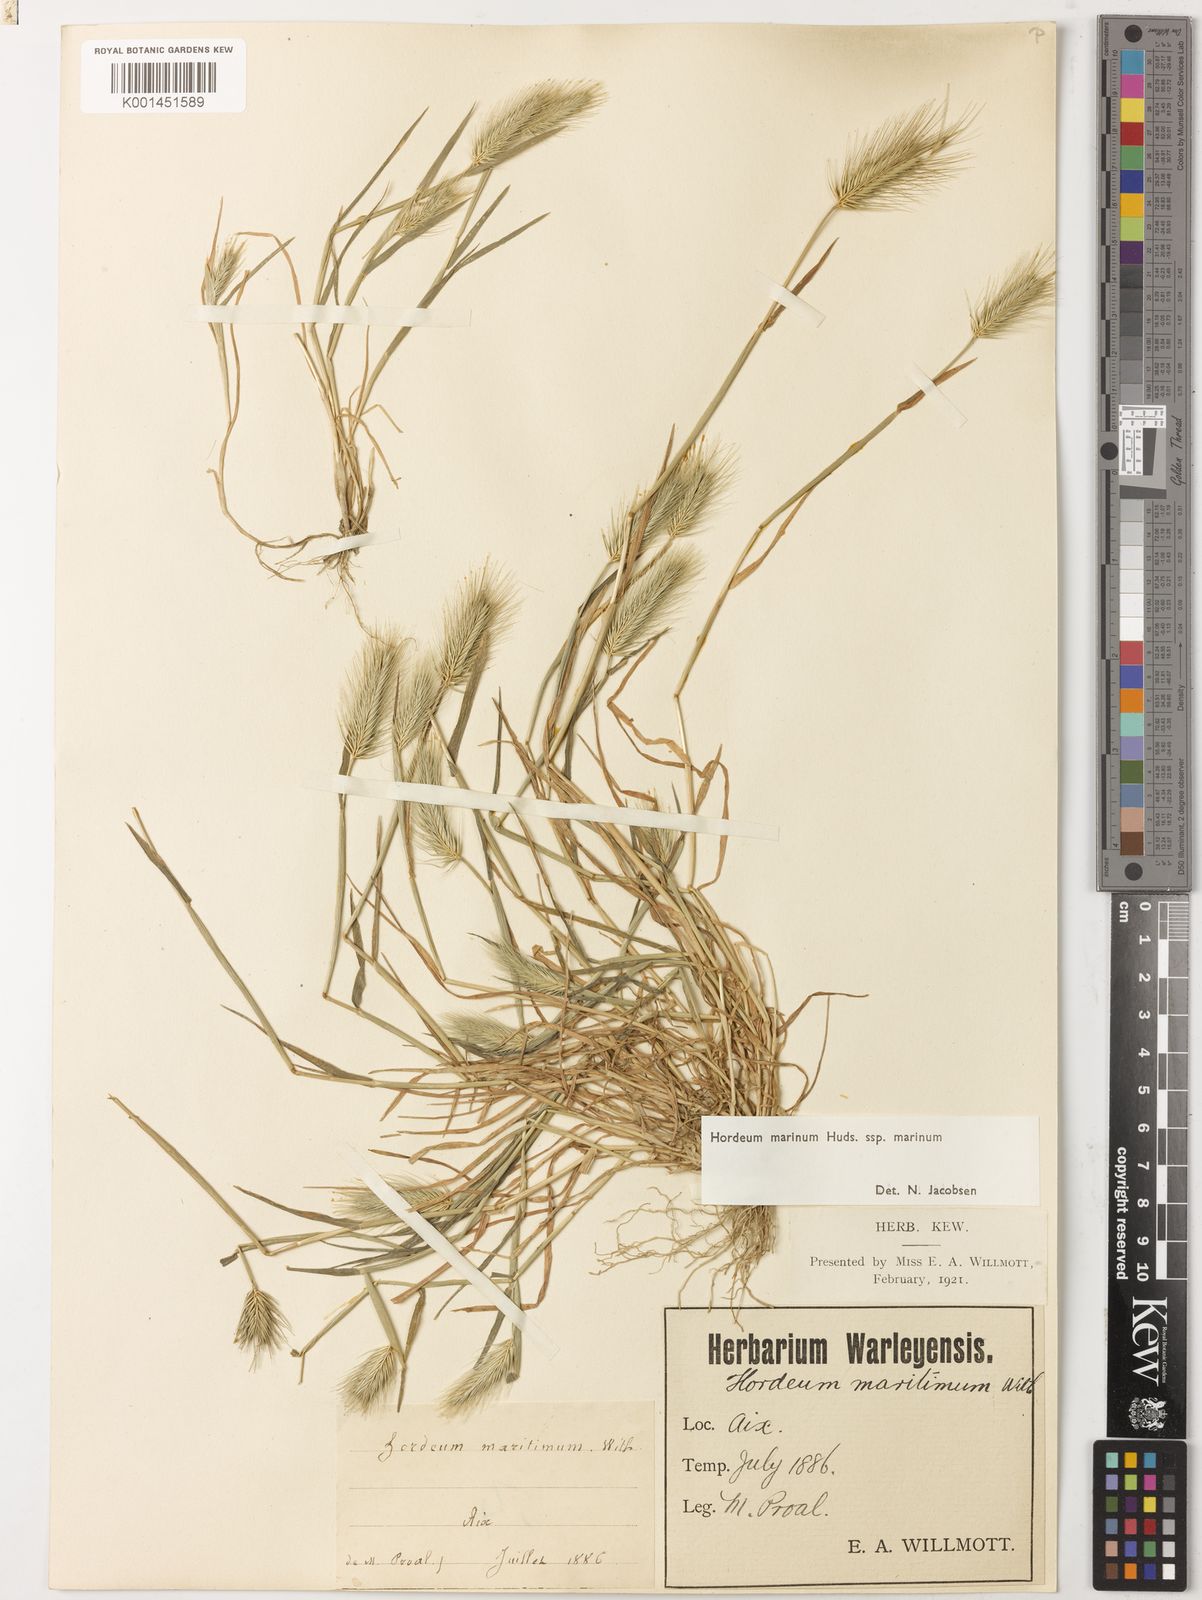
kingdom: Plantae
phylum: Tracheophyta
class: Liliopsida
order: Poales
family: Poaceae
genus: Hordeum
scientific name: Hordeum marinum
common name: Sea barley
